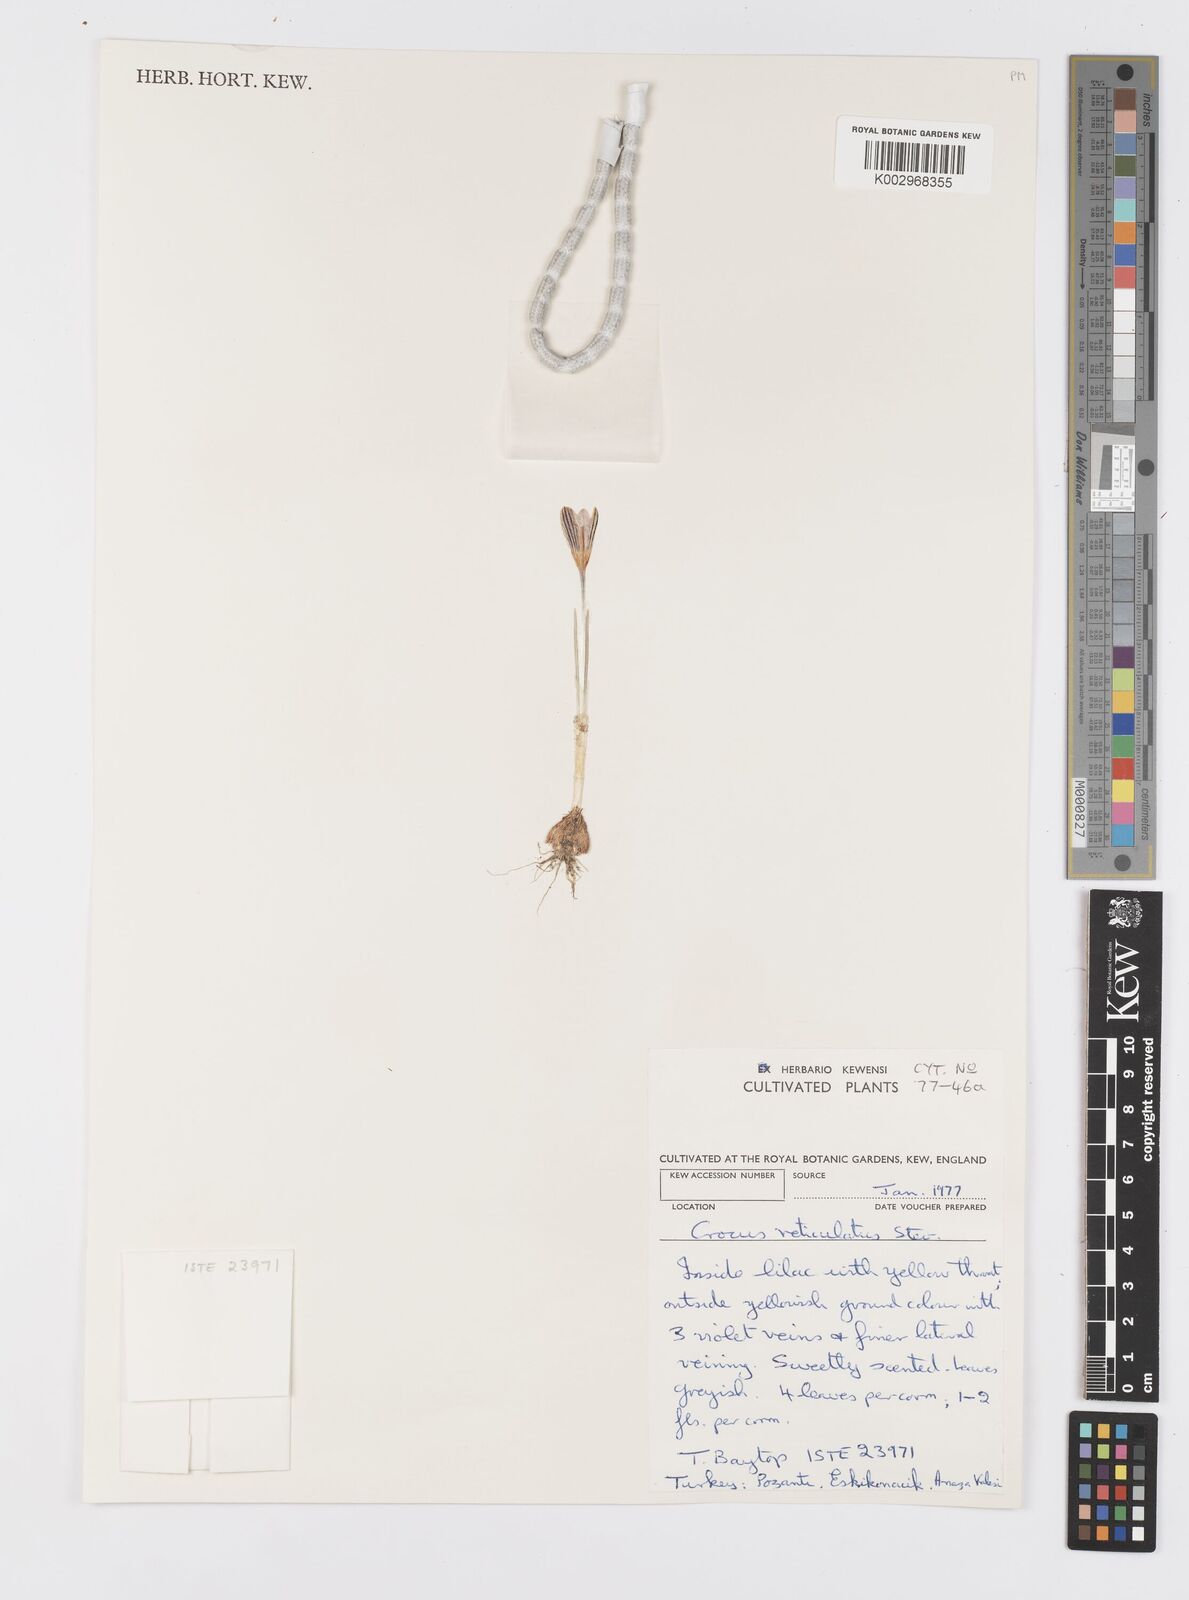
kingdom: Plantae
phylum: Tracheophyta
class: Liliopsida
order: Asparagales
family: Iridaceae
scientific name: Iridaceae
